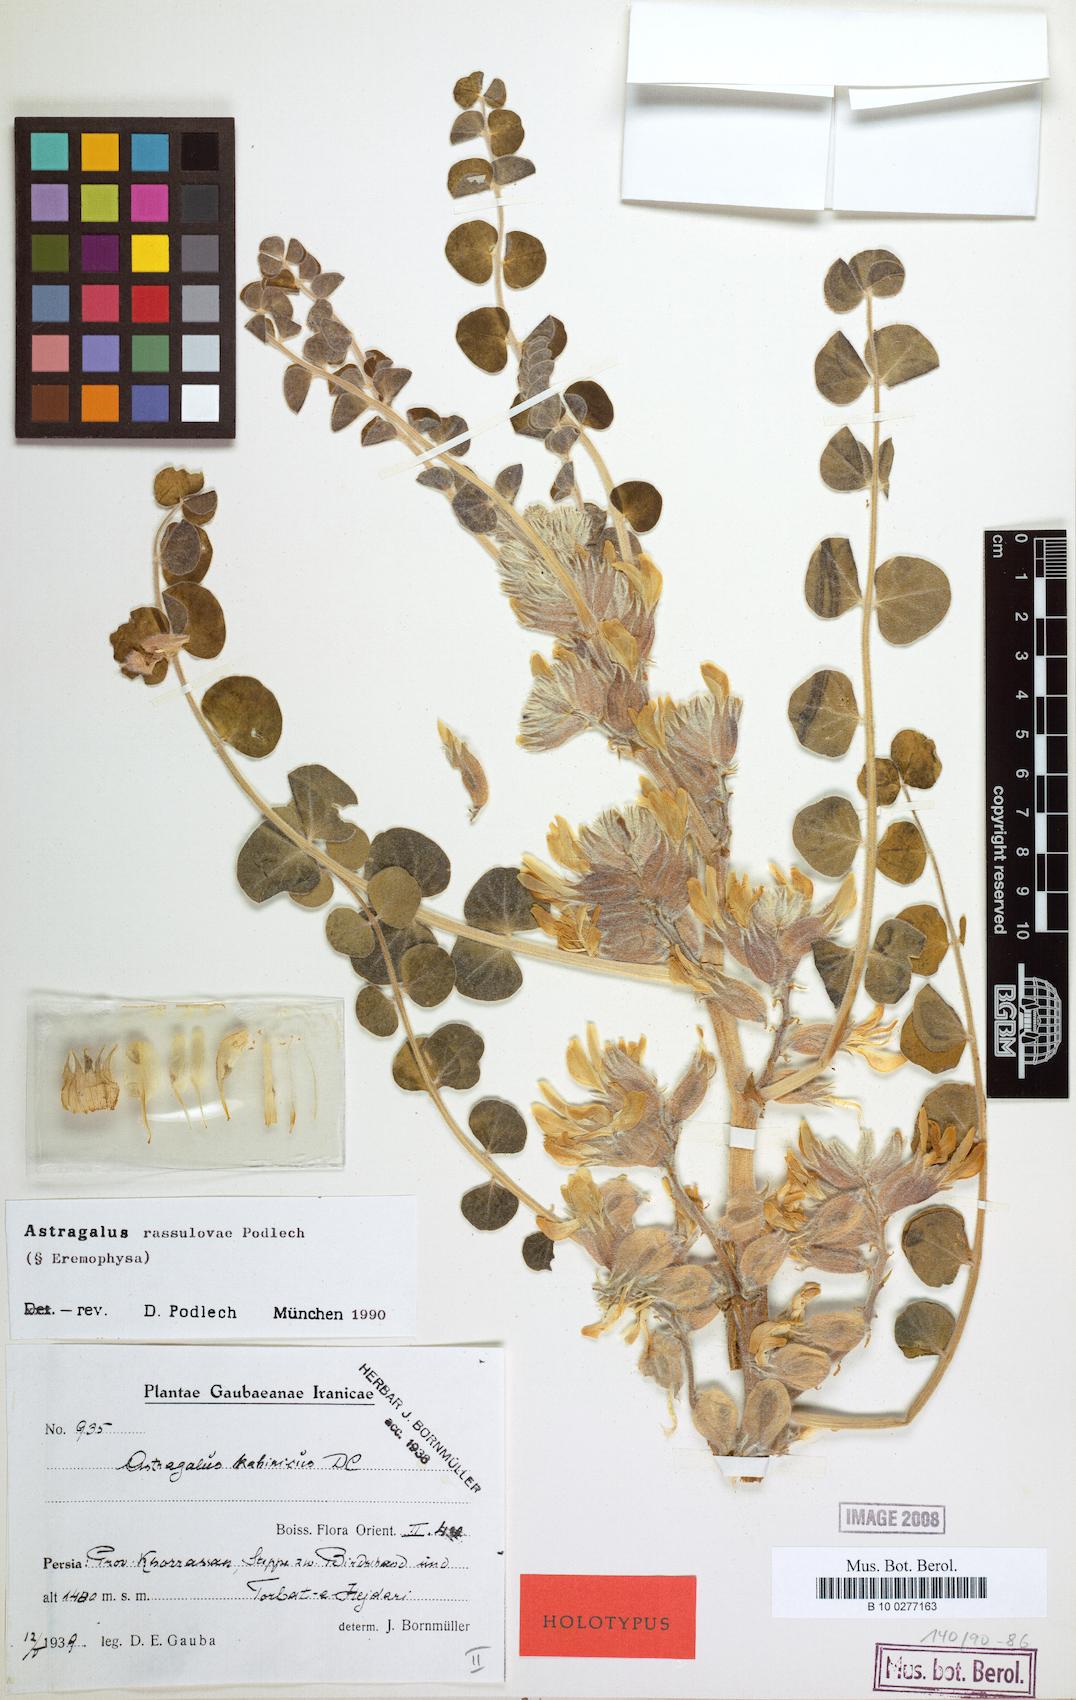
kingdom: Plantae
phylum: Tracheophyta
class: Magnoliopsida
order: Fabales
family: Fabaceae
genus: Astragalus
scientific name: Astragalus rassulovae
